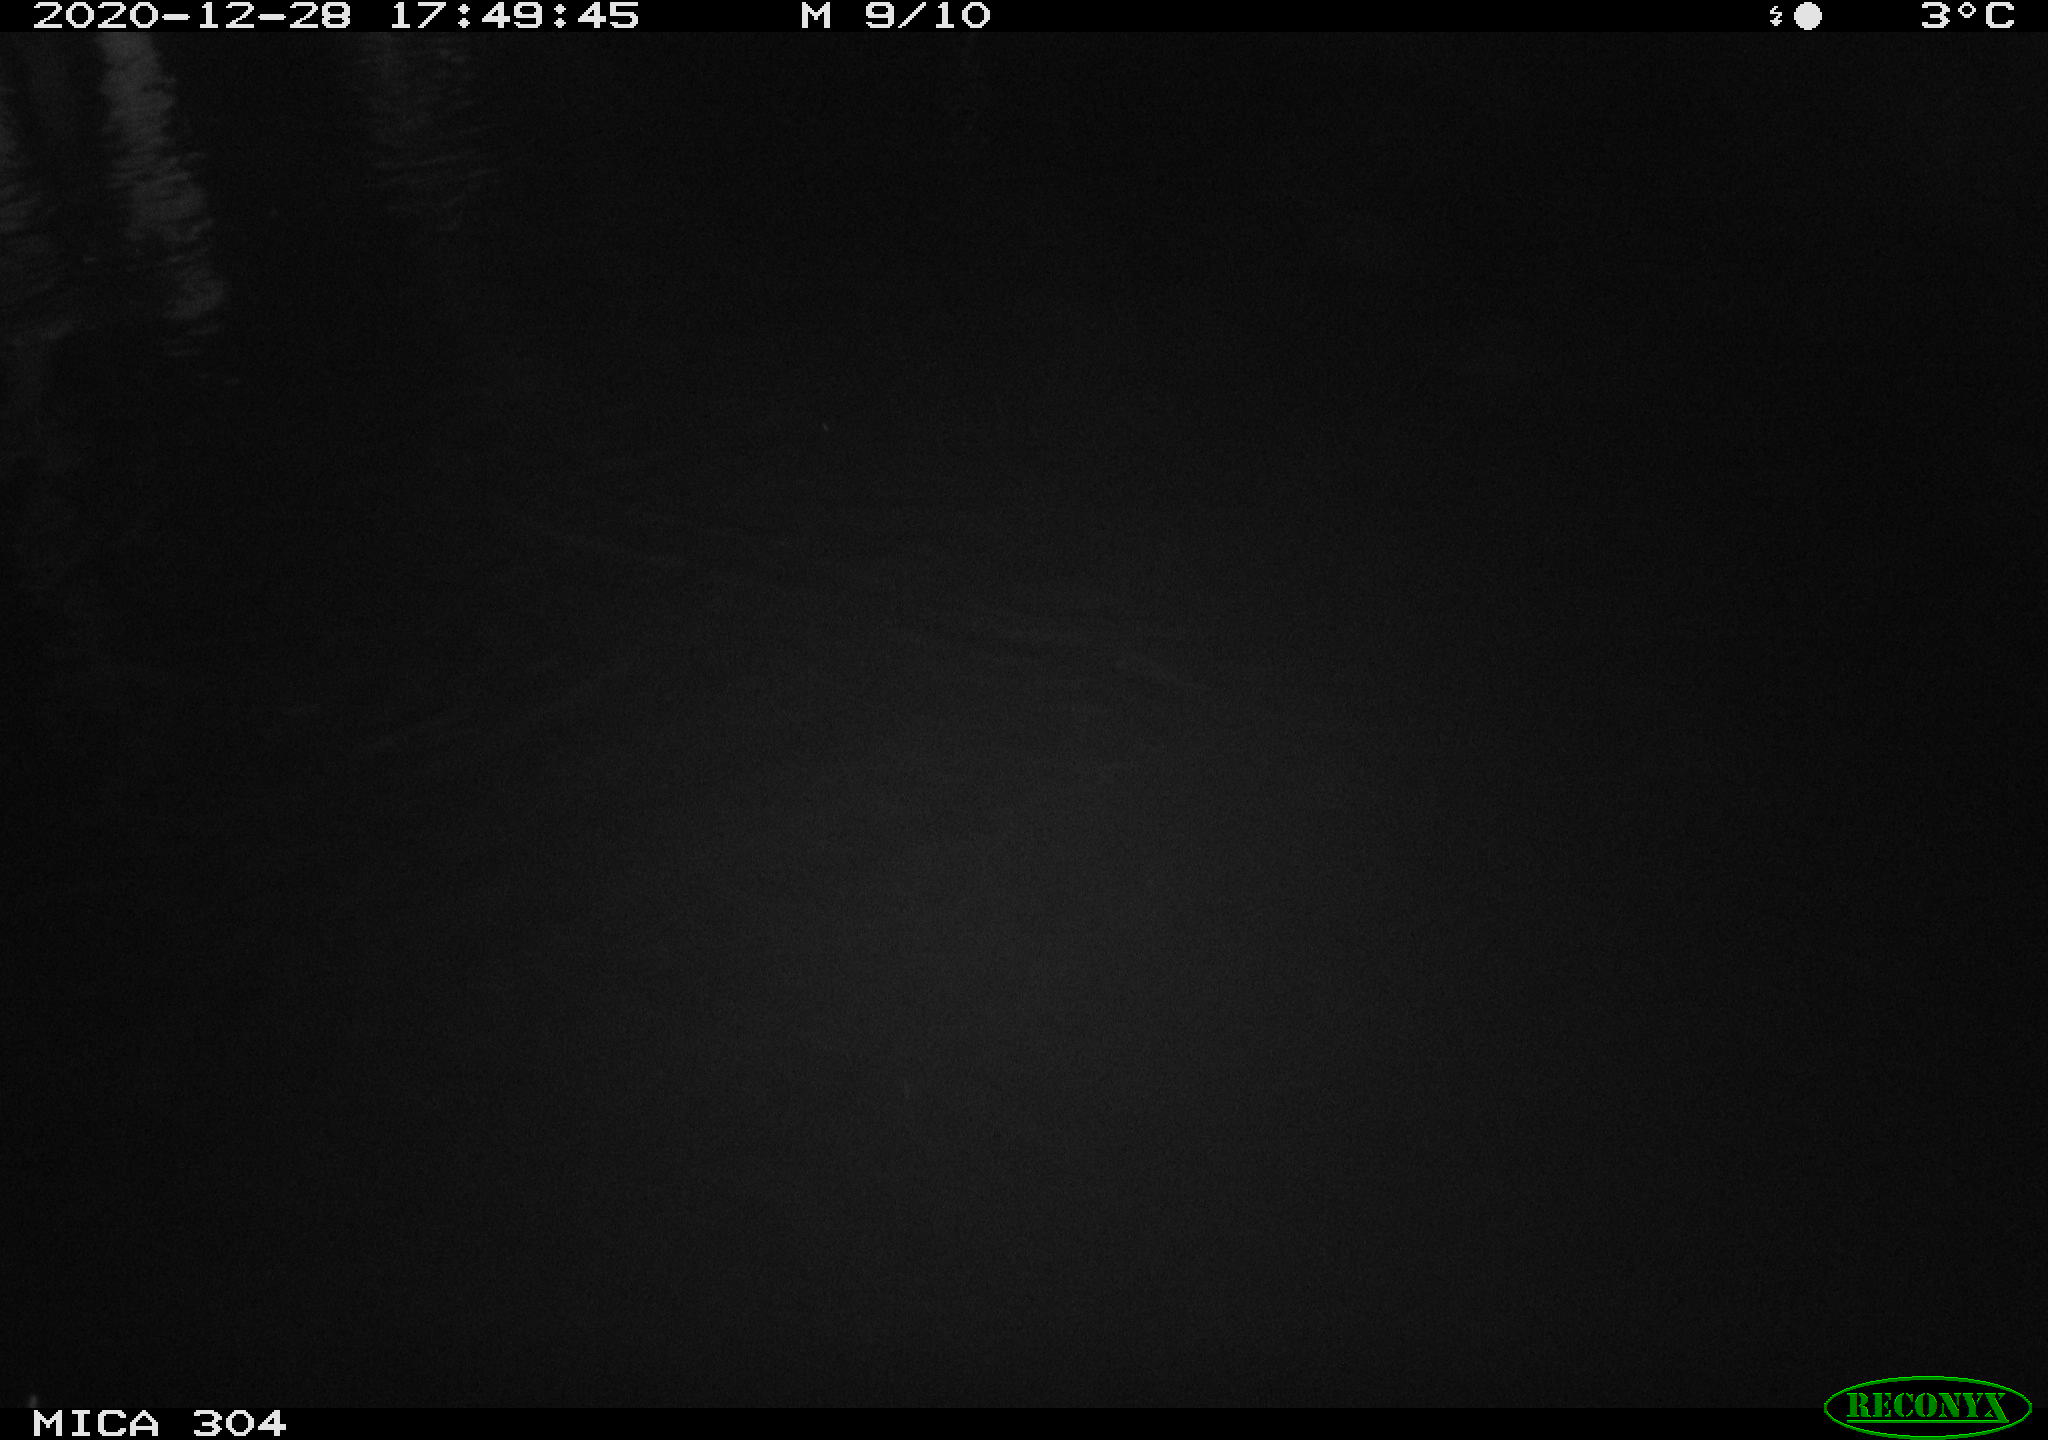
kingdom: Animalia
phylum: Chordata
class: Mammalia
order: Rodentia
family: Cricetidae
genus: Ondatra
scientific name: Ondatra zibethicus
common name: Muskrat
